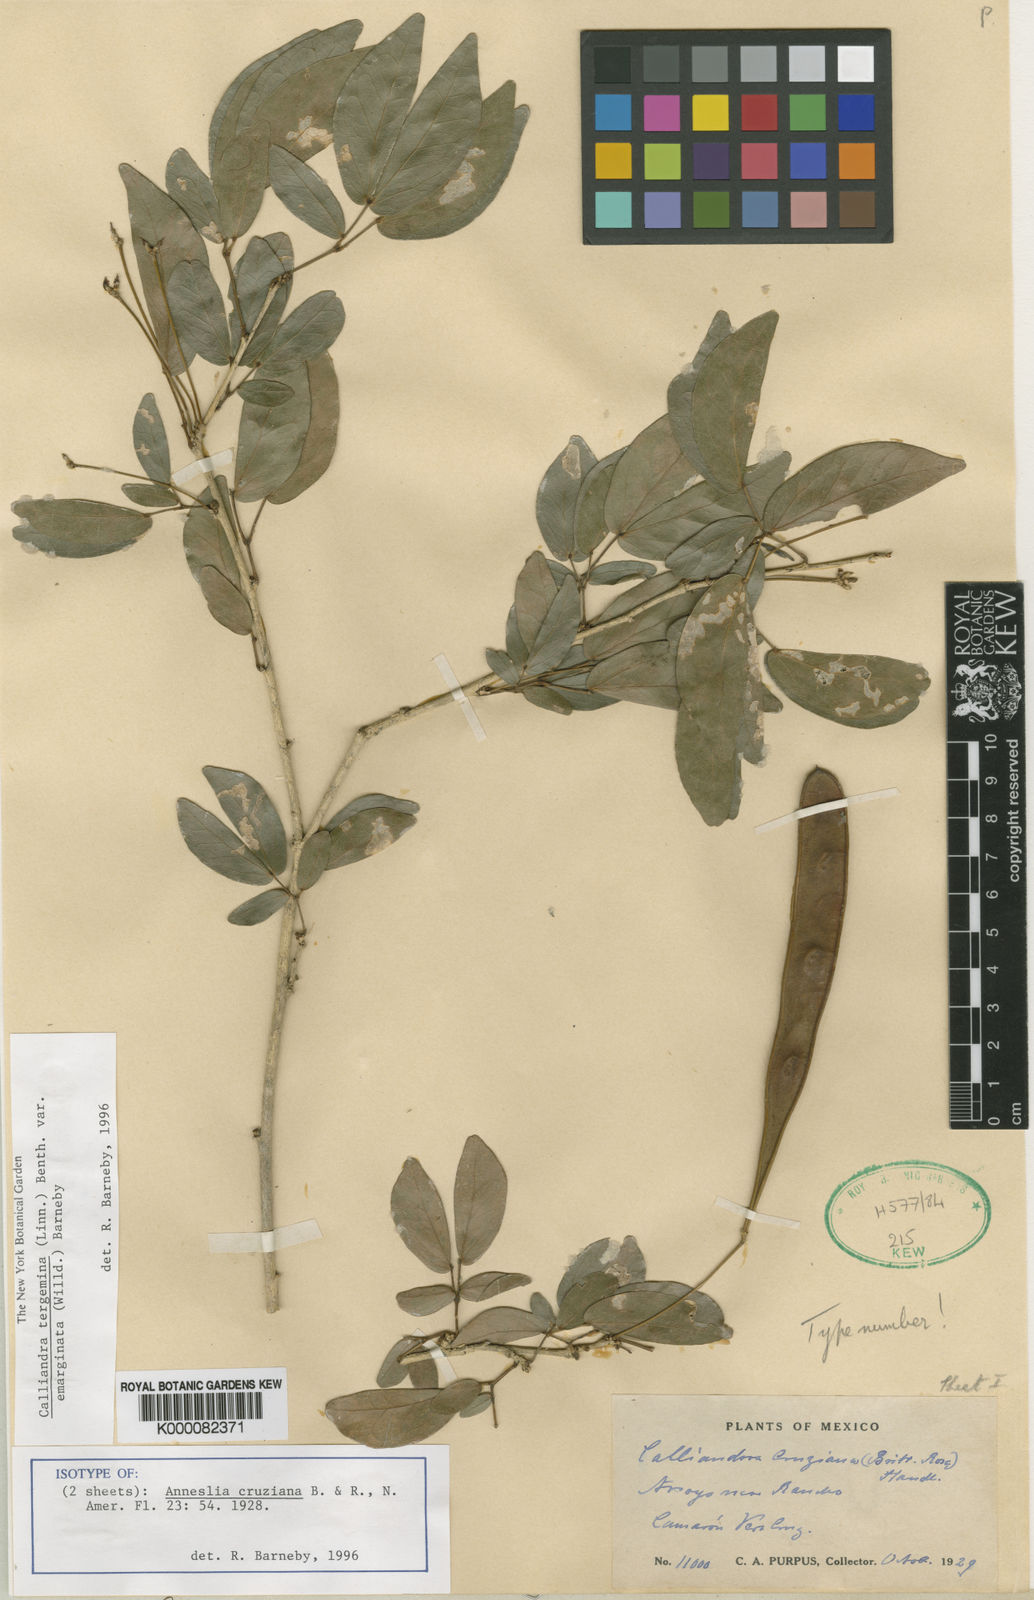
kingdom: Plantae
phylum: Tracheophyta
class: Magnoliopsida
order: Fabales
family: Fabaceae
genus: Calliandra
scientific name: Calliandra tergemina
